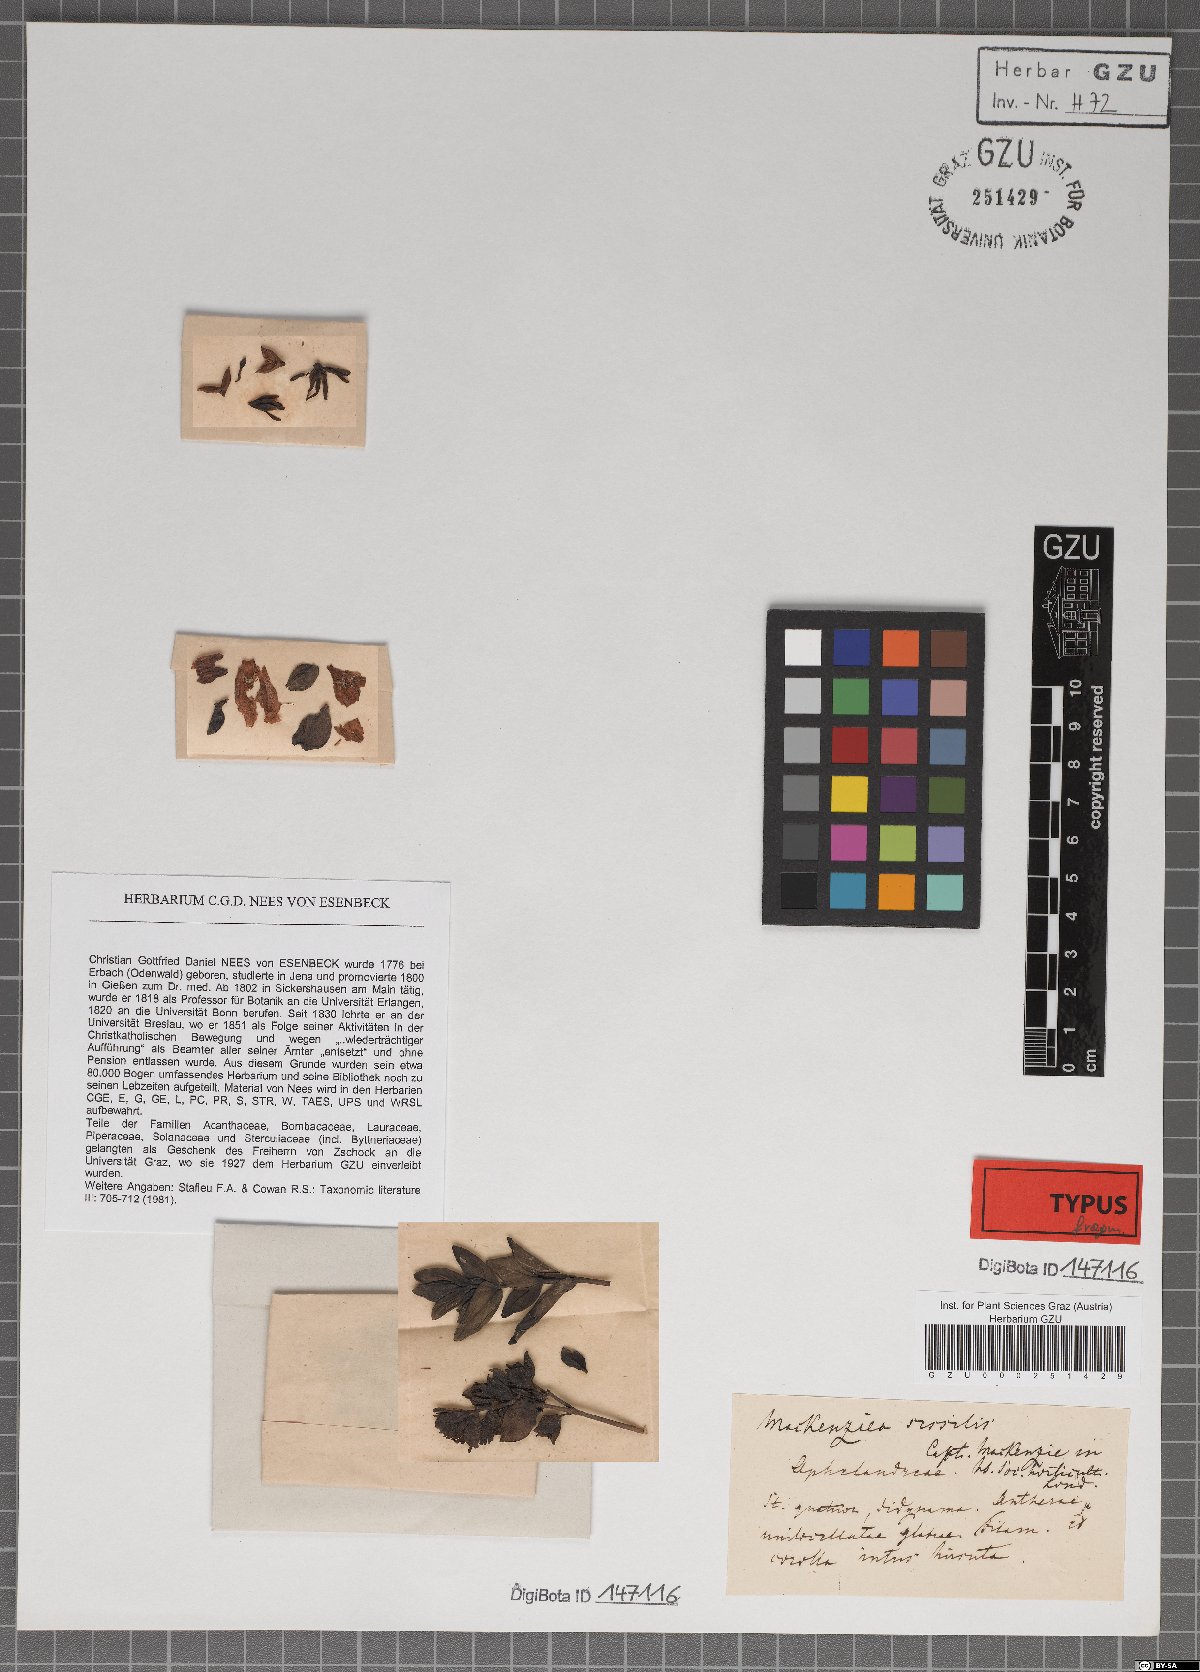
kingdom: Plantae
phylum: Tracheophyta
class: Magnoliopsida
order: Lamiales
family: Acanthaceae
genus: Strobilanthes
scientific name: Strobilanthes sexennis
